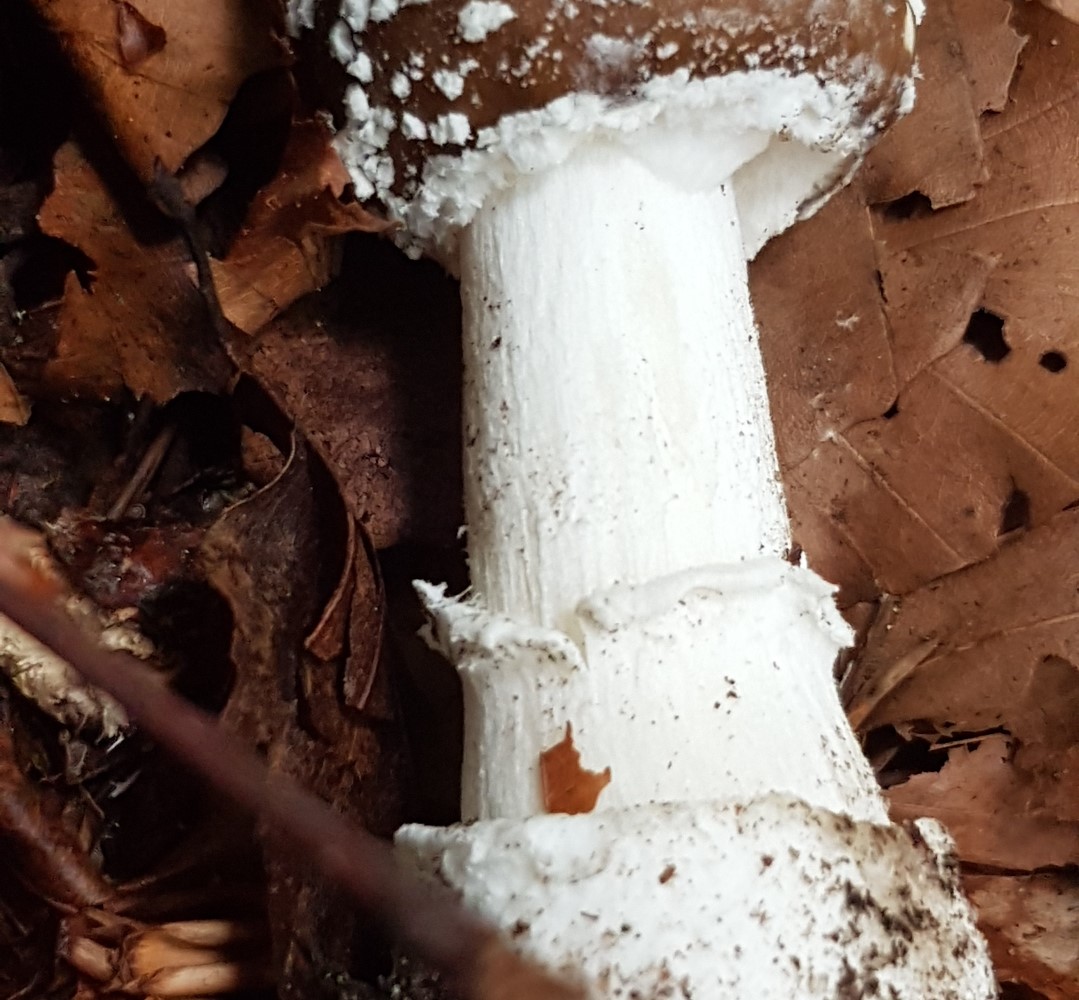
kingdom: Fungi
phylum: Basidiomycota
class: Agaricomycetes
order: Agaricales
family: Amanitaceae
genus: Amanita
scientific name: Amanita pantherina
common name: panter-fluesvamp
